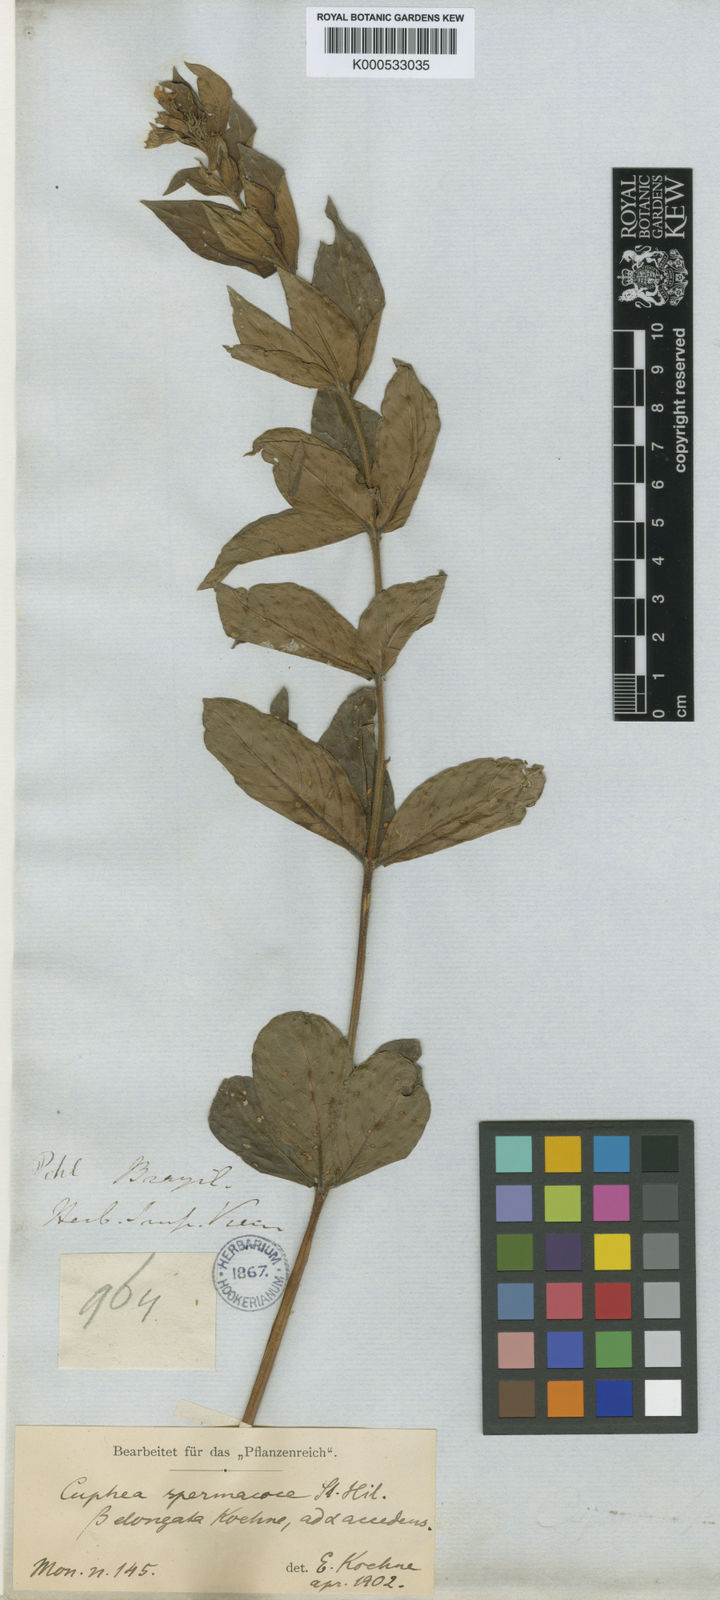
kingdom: Plantae
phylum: Tracheophyta
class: Magnoliopsida
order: Myrtales
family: Lythraceae
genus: Cuphea
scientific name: Cuphea spermacoce
